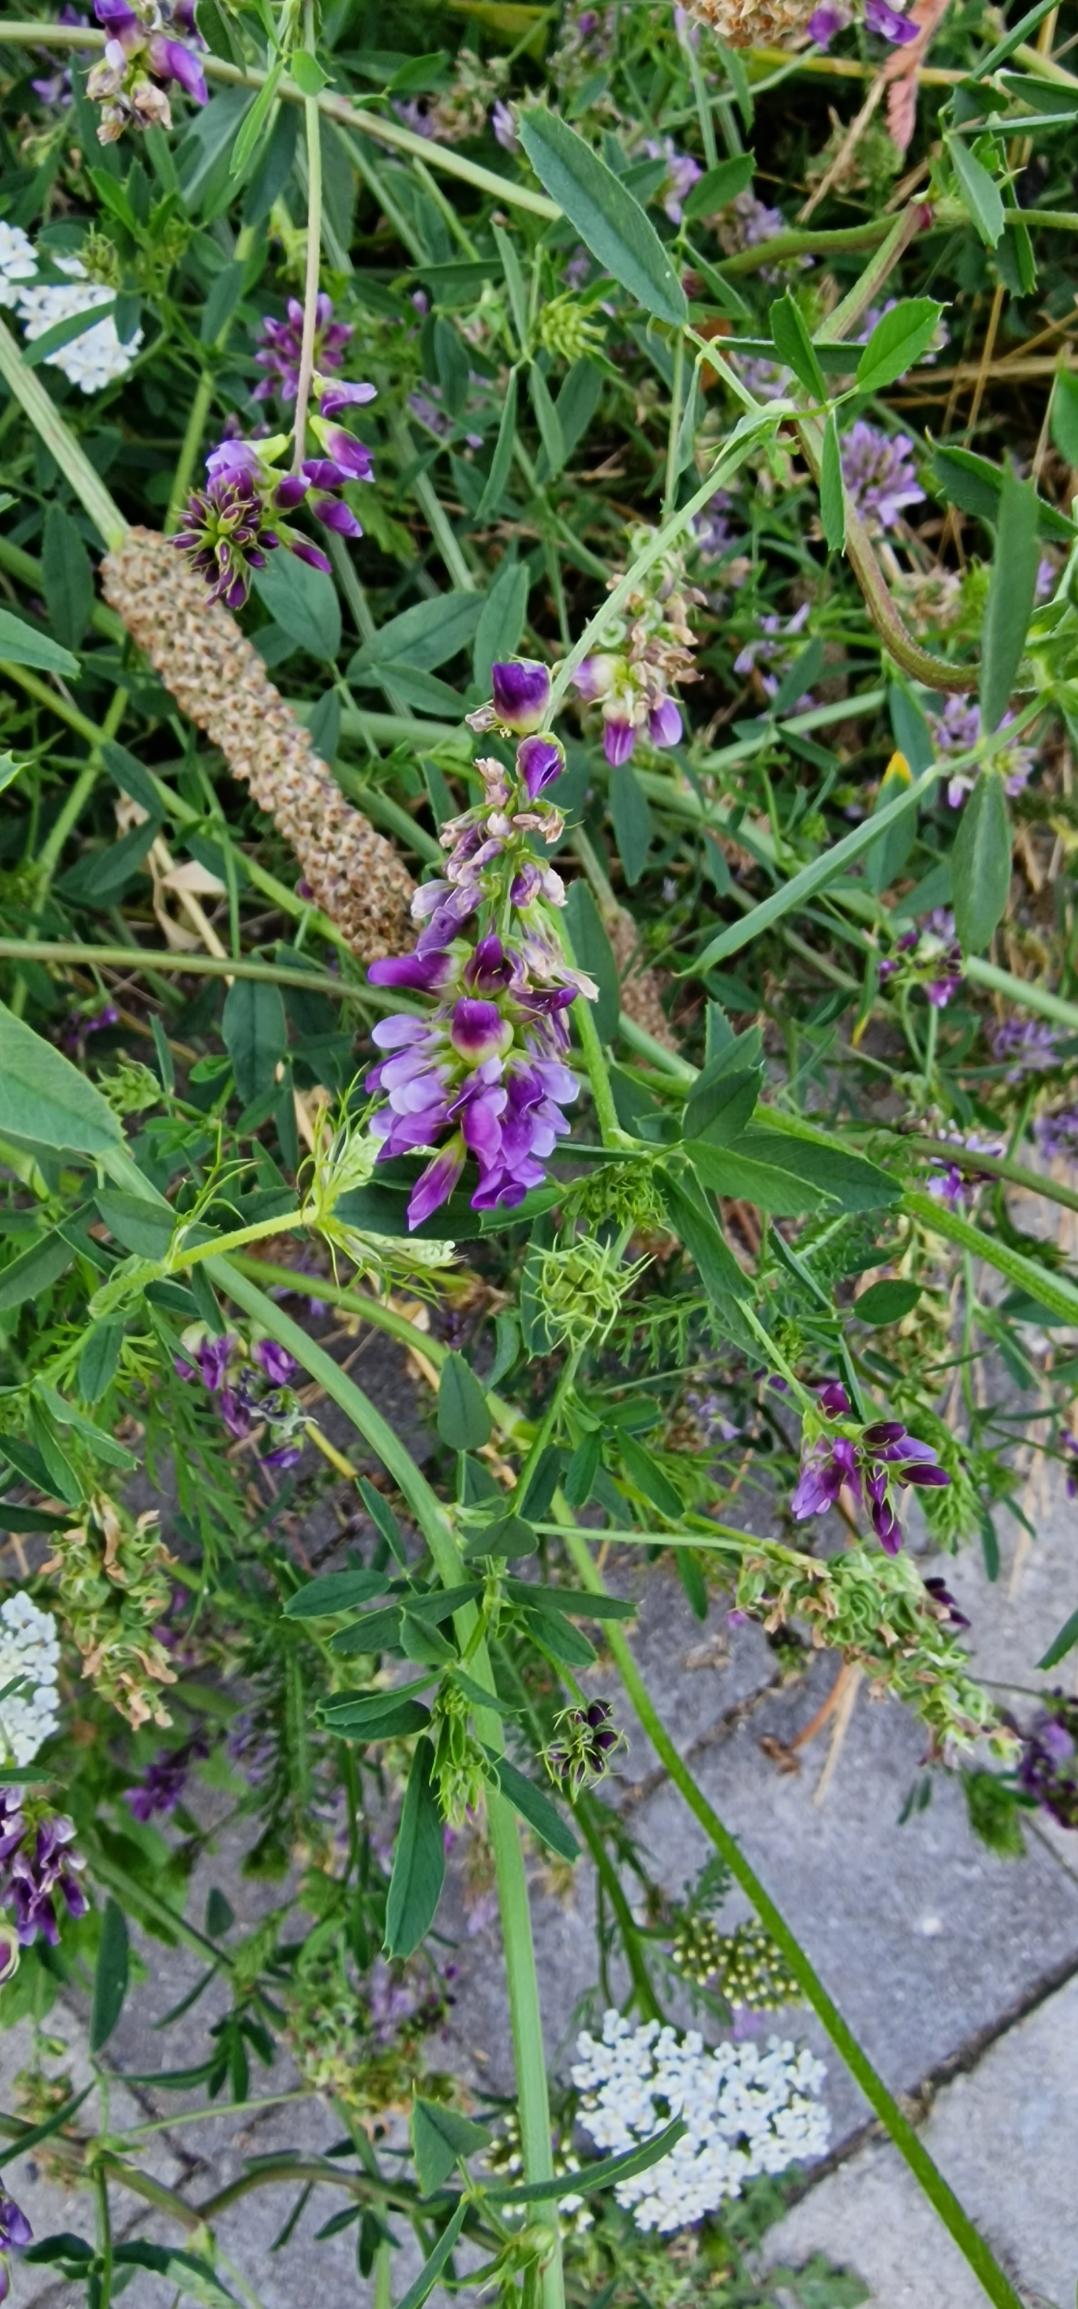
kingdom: Plantae
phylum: Tracheophyta
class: Magnoliopsida
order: Fabales
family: Fabaceae
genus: Medicago
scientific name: Medicago sativa
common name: Lucerne
